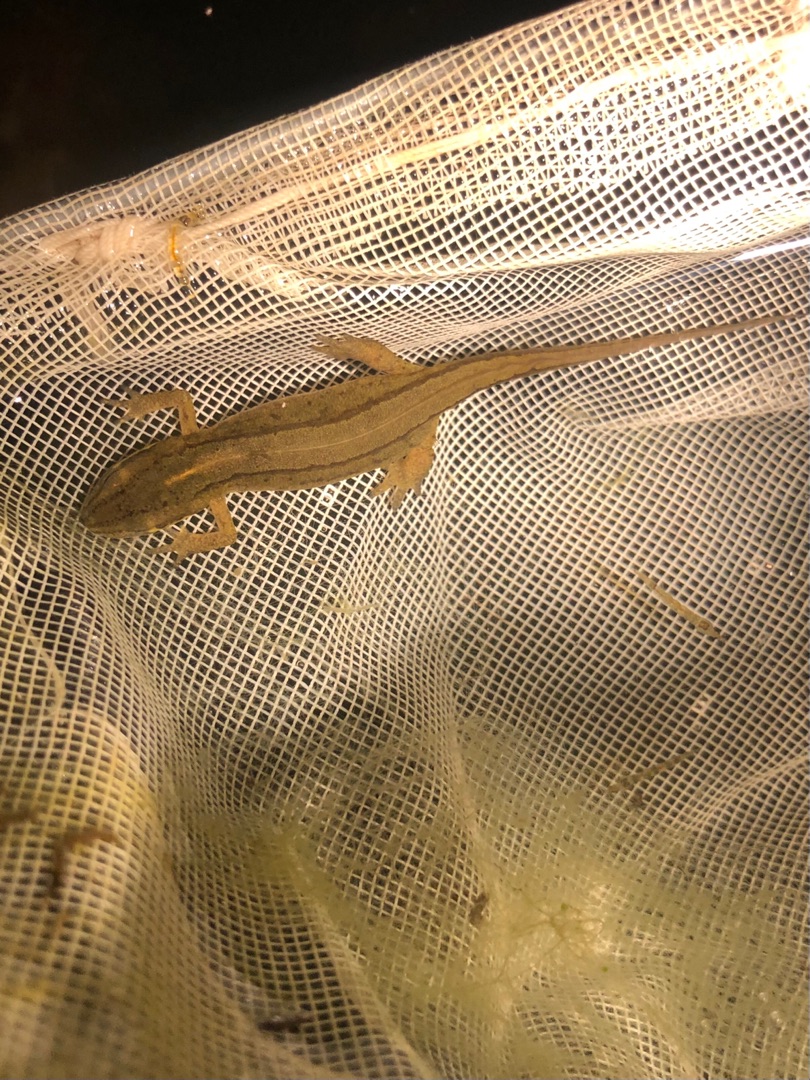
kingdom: Animalia
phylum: Chordata
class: Amphibia
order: Caudata
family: Salamandridae
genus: Lissotriton
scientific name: Lissotriton vulgaris
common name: Lille vandsalamander
